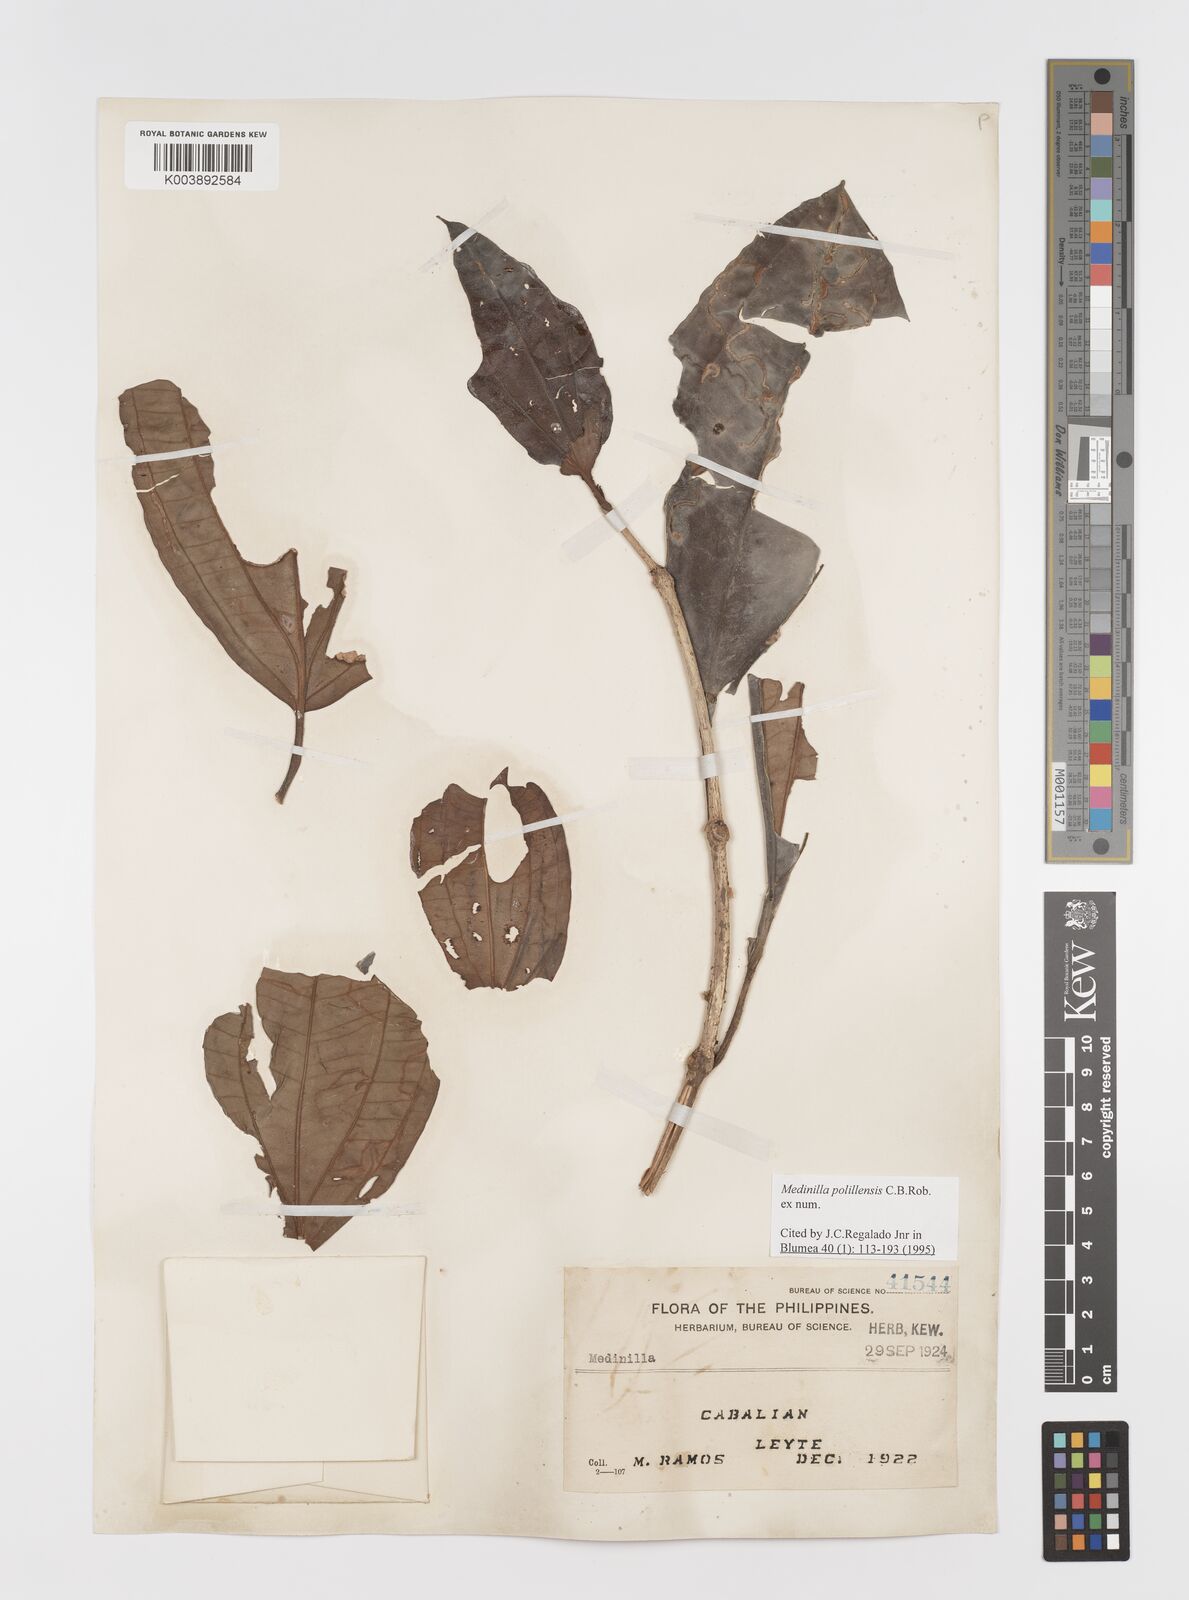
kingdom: Plantae
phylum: Tracheophyta
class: Magnoliopsida
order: Myrtales
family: Melastomataceae
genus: Medinilla
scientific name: Medinilla polillensis
